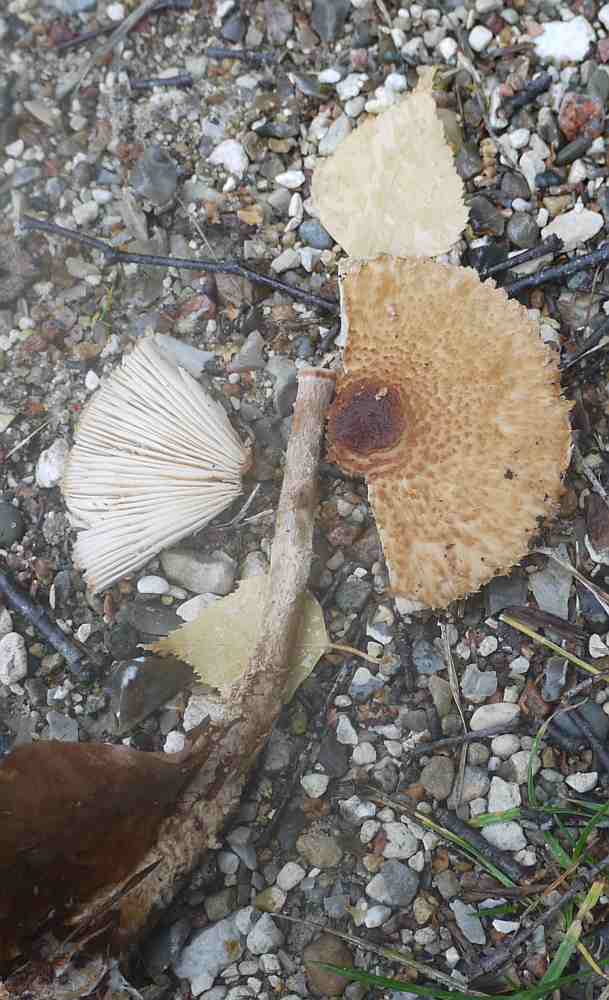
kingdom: Fungi
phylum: Basidiomycota
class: Agaricomycetes
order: Agaricales
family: Agaricaceae
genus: Lepiota
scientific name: Lepiota magnispora
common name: gulfnugget parasolhat
